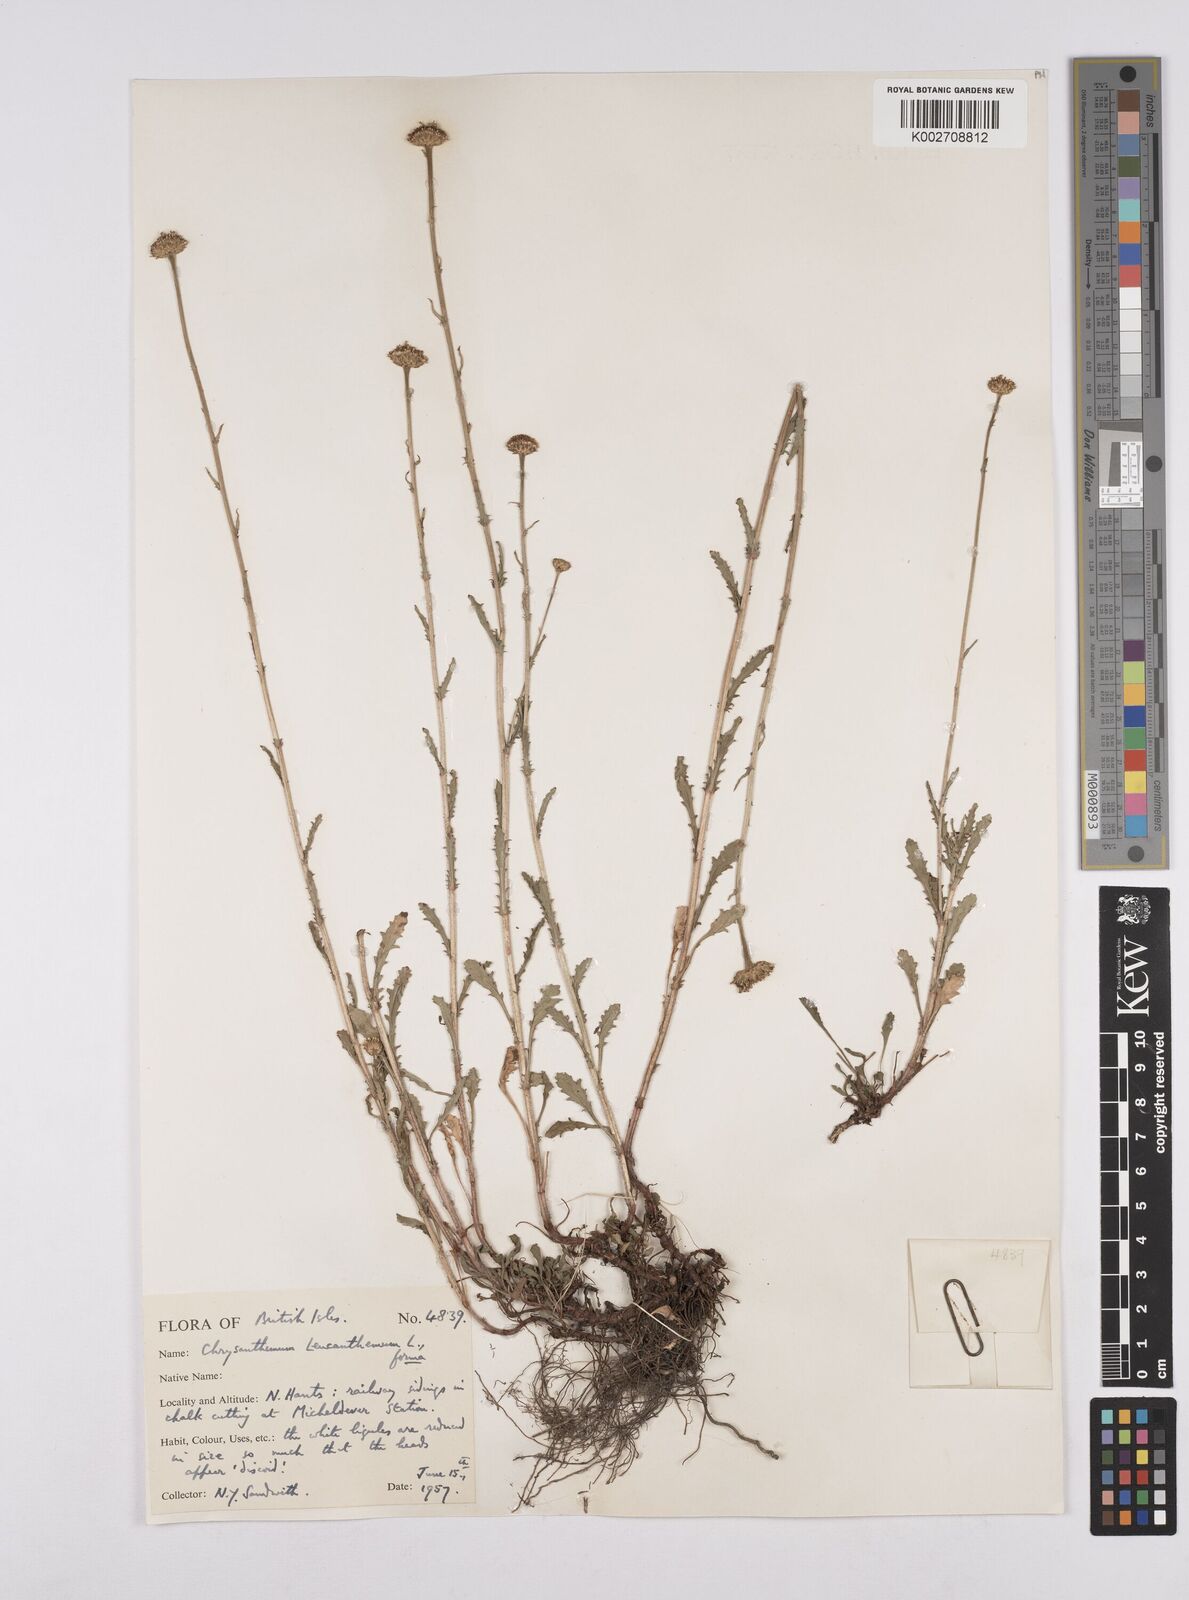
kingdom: Plantae
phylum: Tracheophyta
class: Magnoliopsida
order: Asterales
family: Asteraceae
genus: Leucanthemum
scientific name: Leucanthemum vulgare
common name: Oxeye daisy
